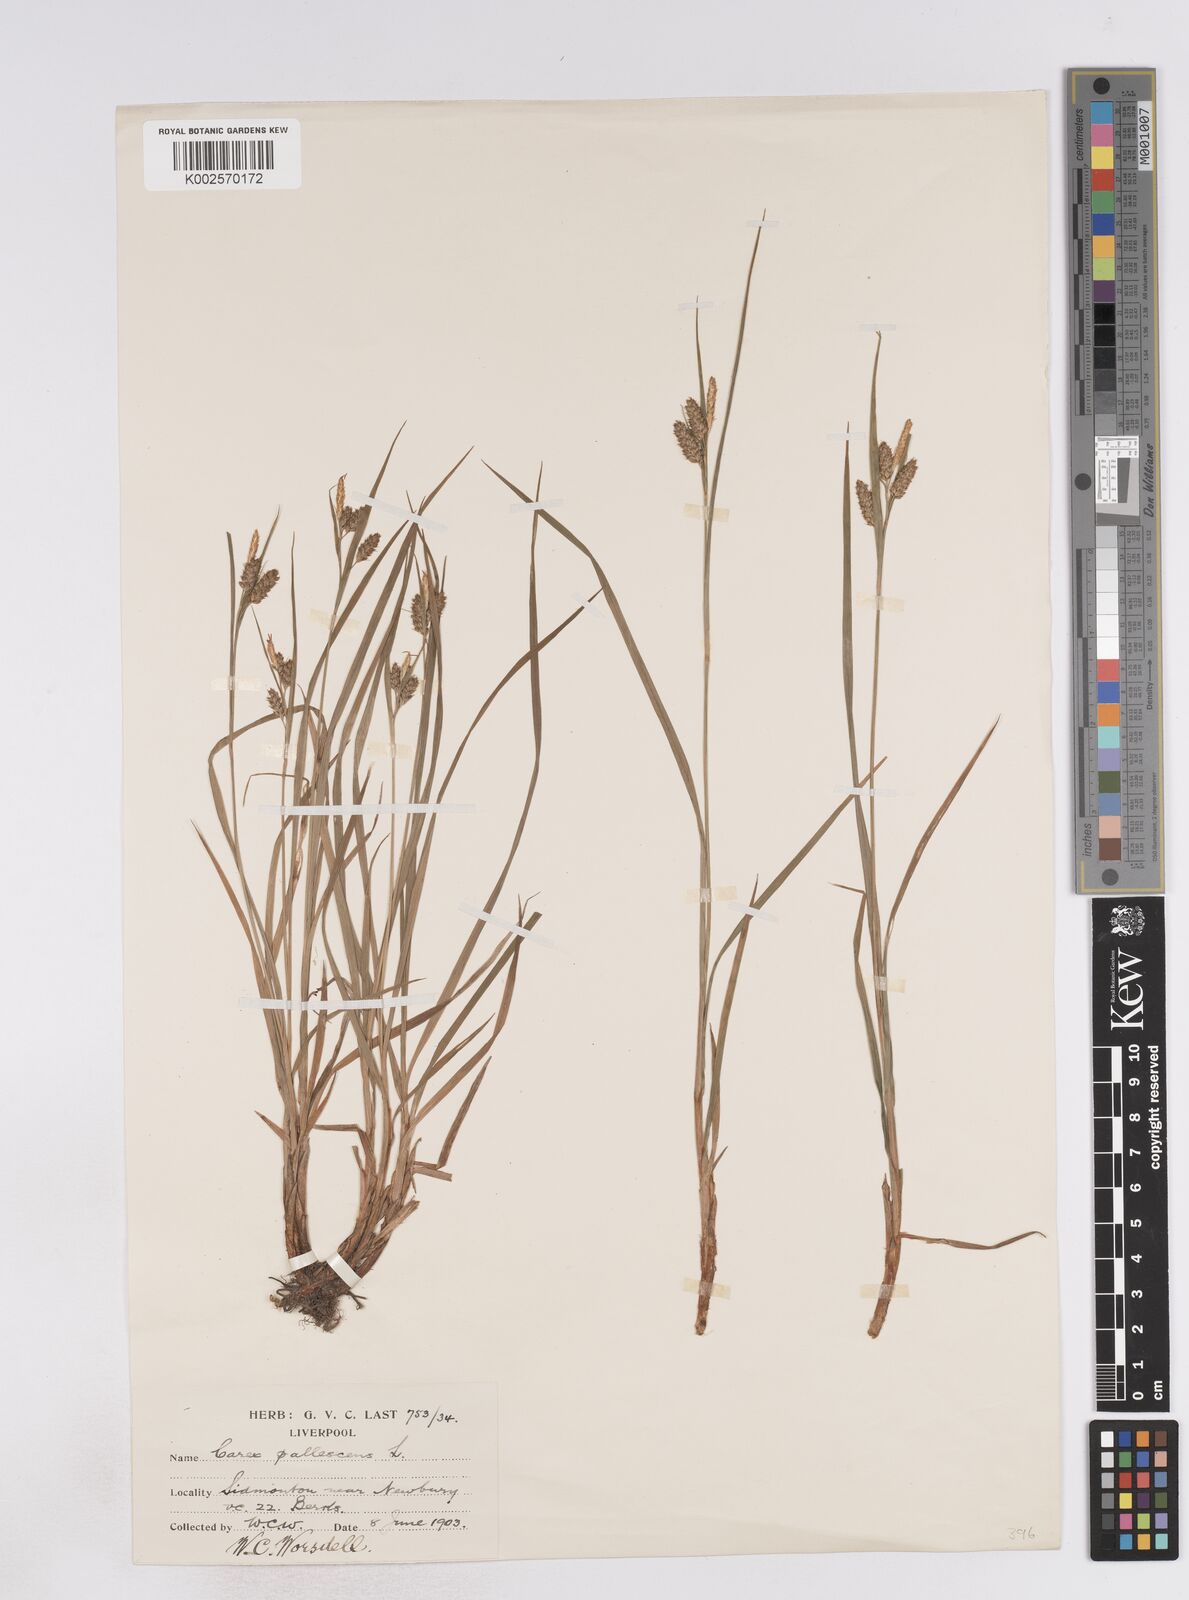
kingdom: Plantae
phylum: Tracheophyta
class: Liliopsida
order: Poales
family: Cyperaceae
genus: Carex
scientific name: Carex pallescens
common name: Pale sedge
